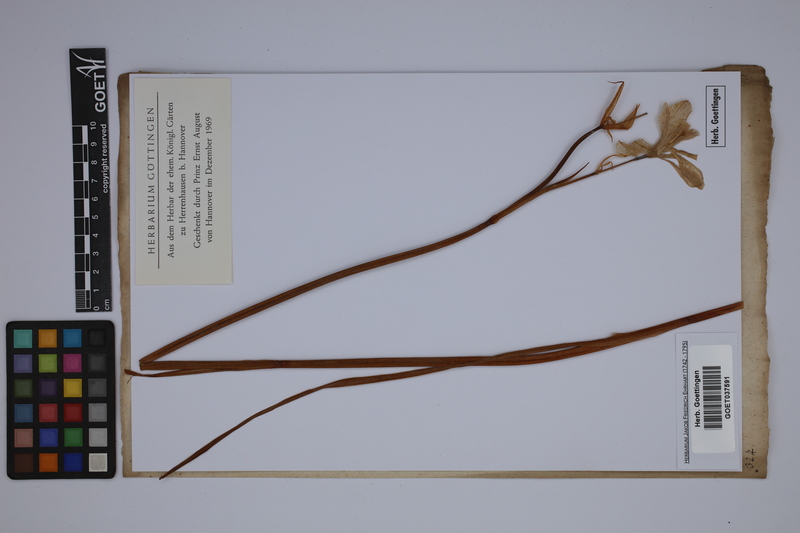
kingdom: Plantae
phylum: Tracheophyta
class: Liliopsida
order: Asparagales
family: Iridaceae
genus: Iris
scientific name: Iris sibirica
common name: Siberian iris
